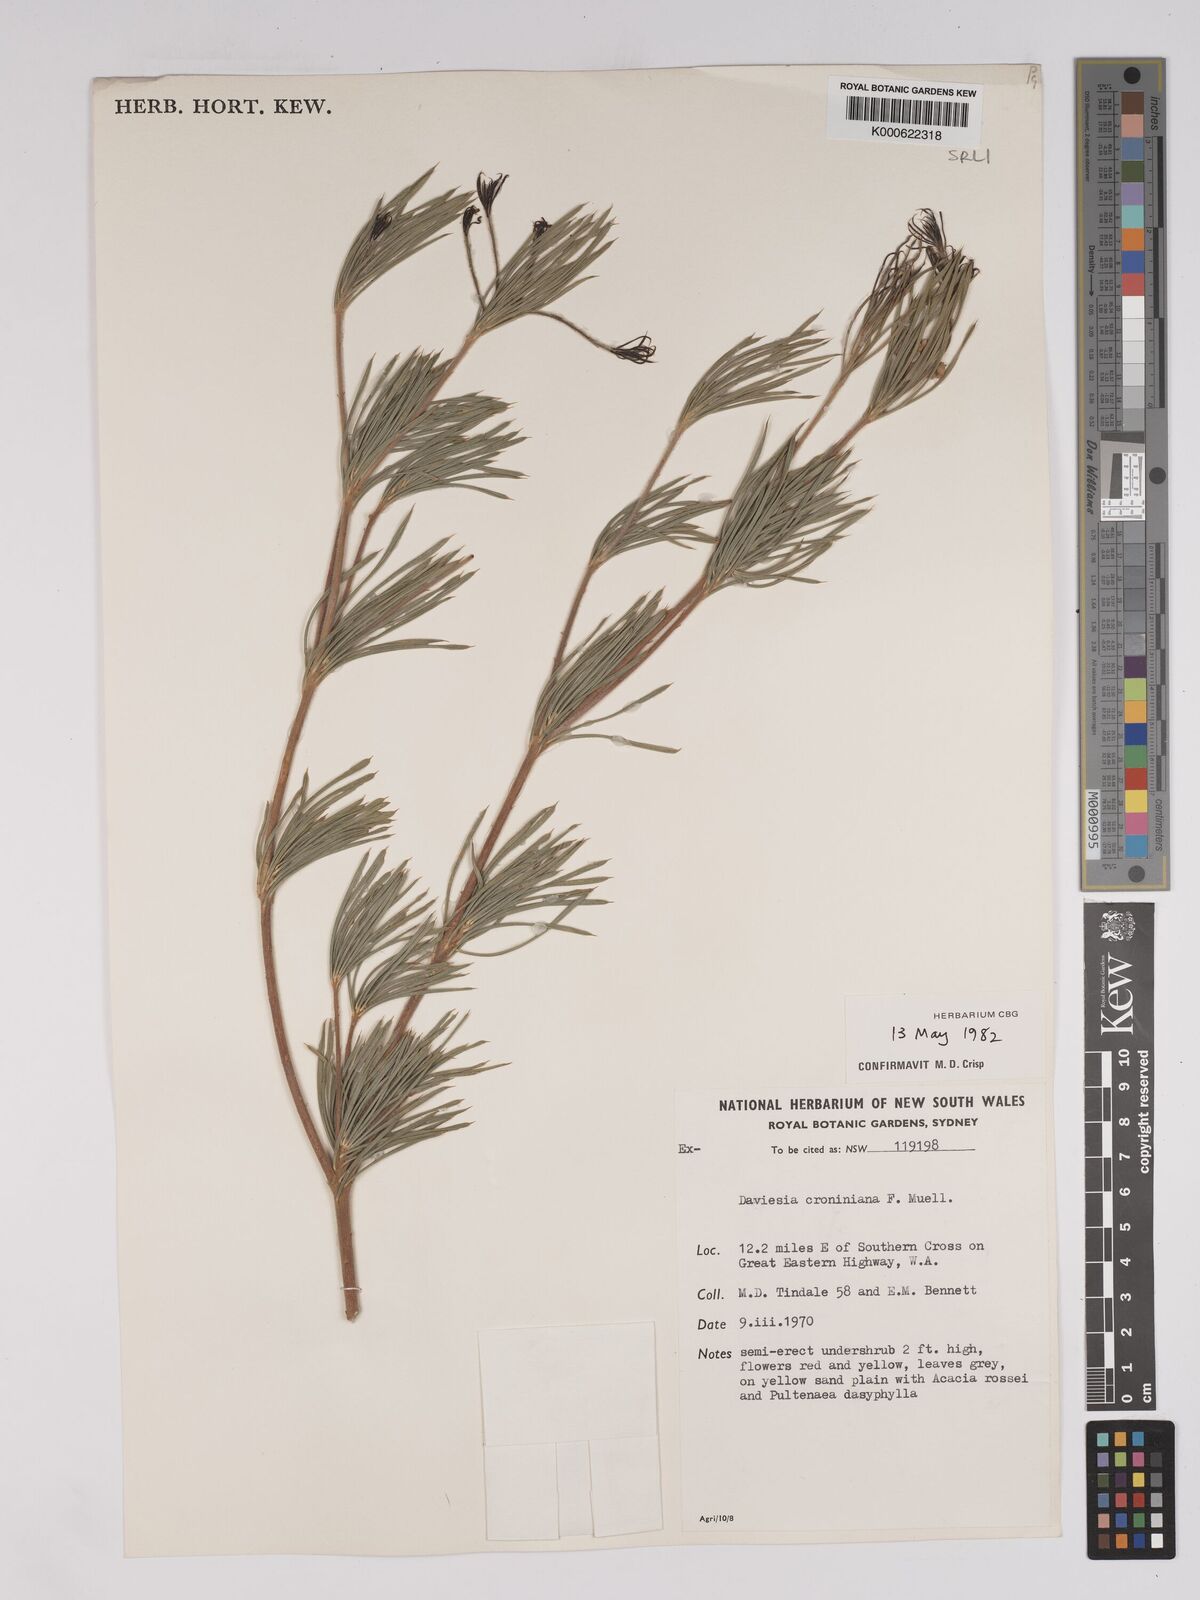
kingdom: Plantae
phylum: Tracheophyta
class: Magnoliopsida
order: Fabales
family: Fabaceae
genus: Daviesia
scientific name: Daviesia croniniana
